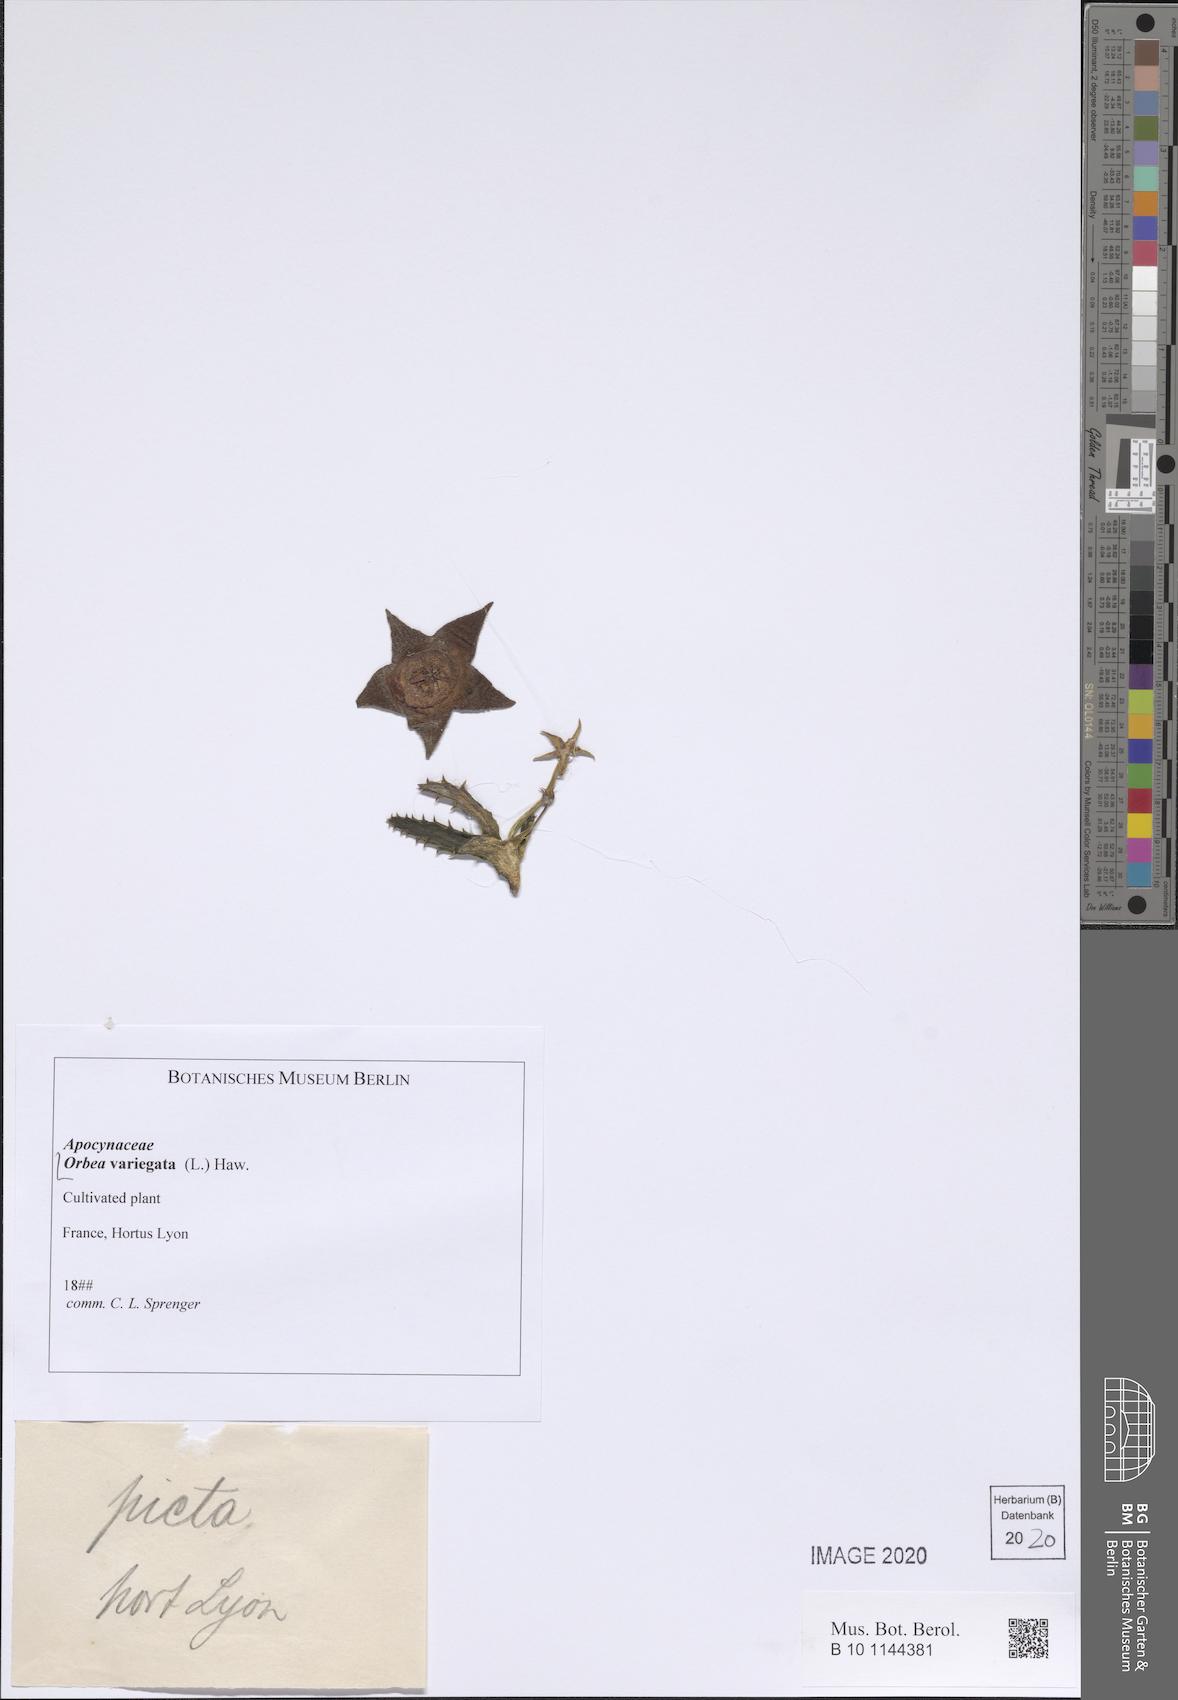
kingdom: Plantae
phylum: Tracheophyta
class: Magnoliopsida
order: Gentianales
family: Apocynaceae
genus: Ceropegia
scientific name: Ceropegia mixta
